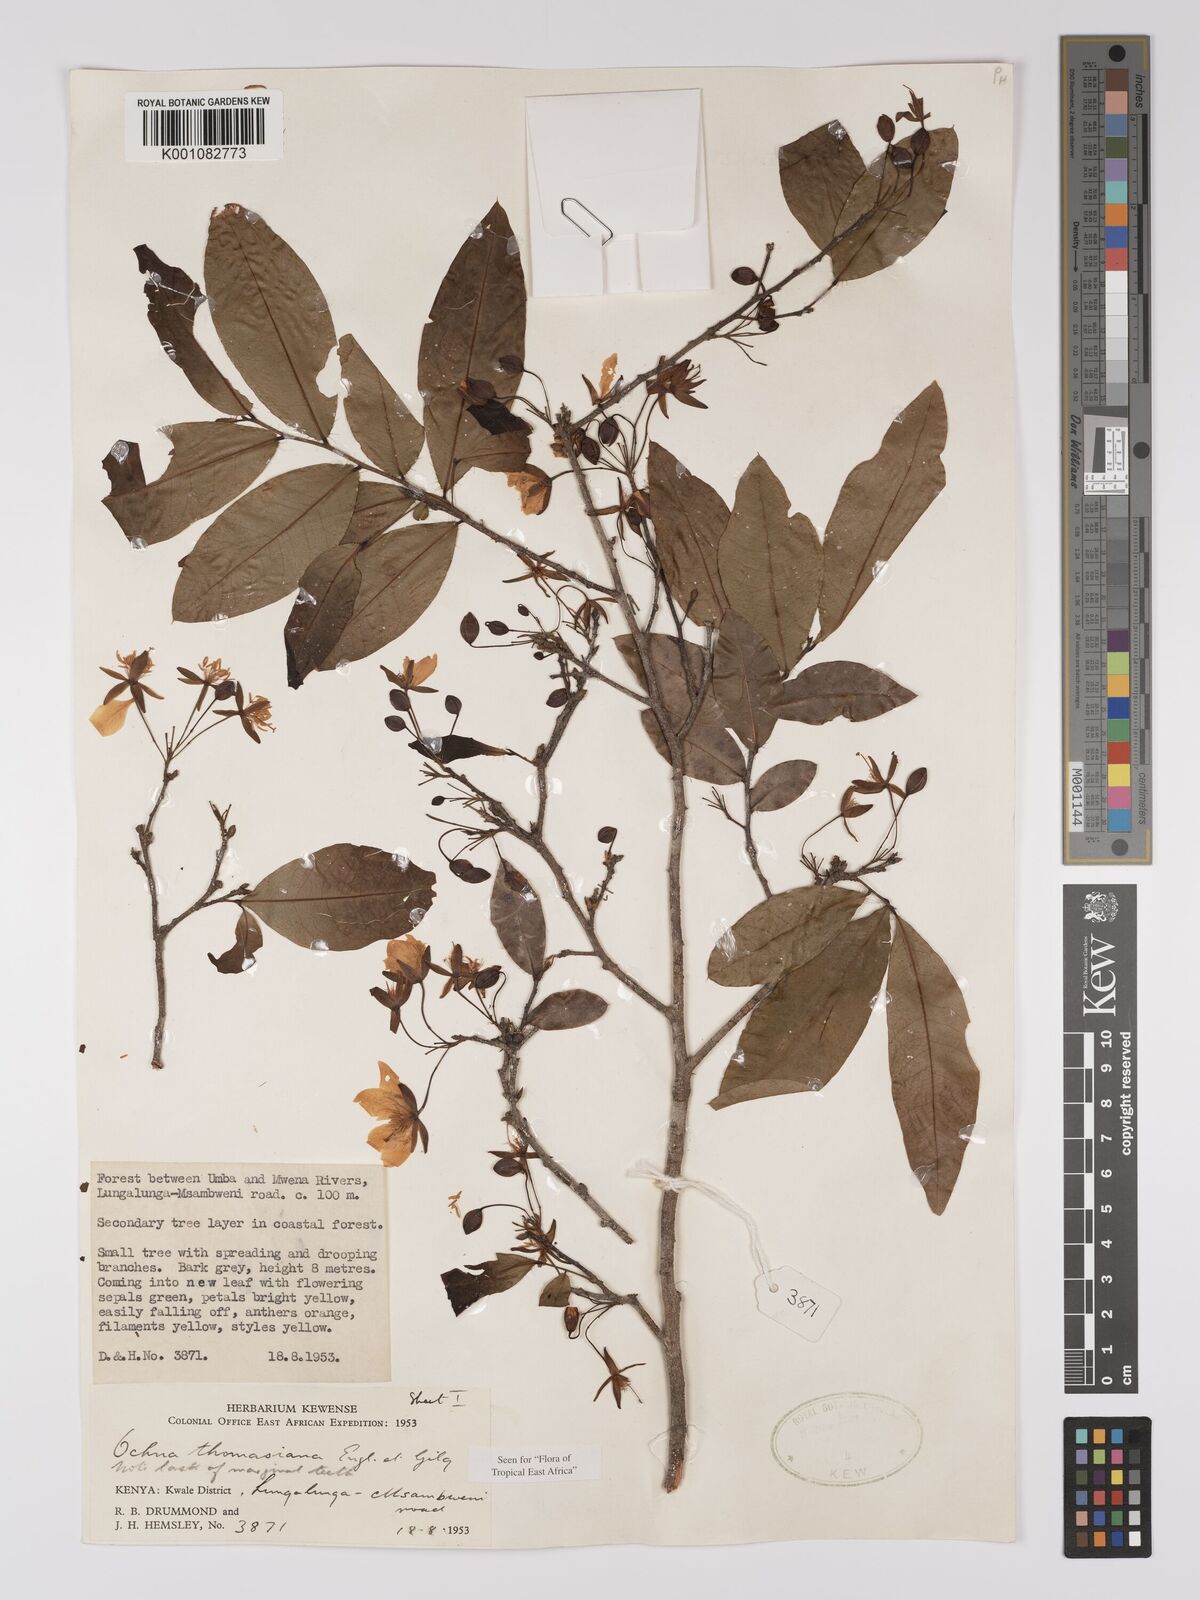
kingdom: Plantae
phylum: Tracheophyta
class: Magnoliopsida
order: Malpighiales
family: Ochnaceae
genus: Ochna
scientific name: Ochna thomasiana
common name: Thomas' bird's-eye bush
